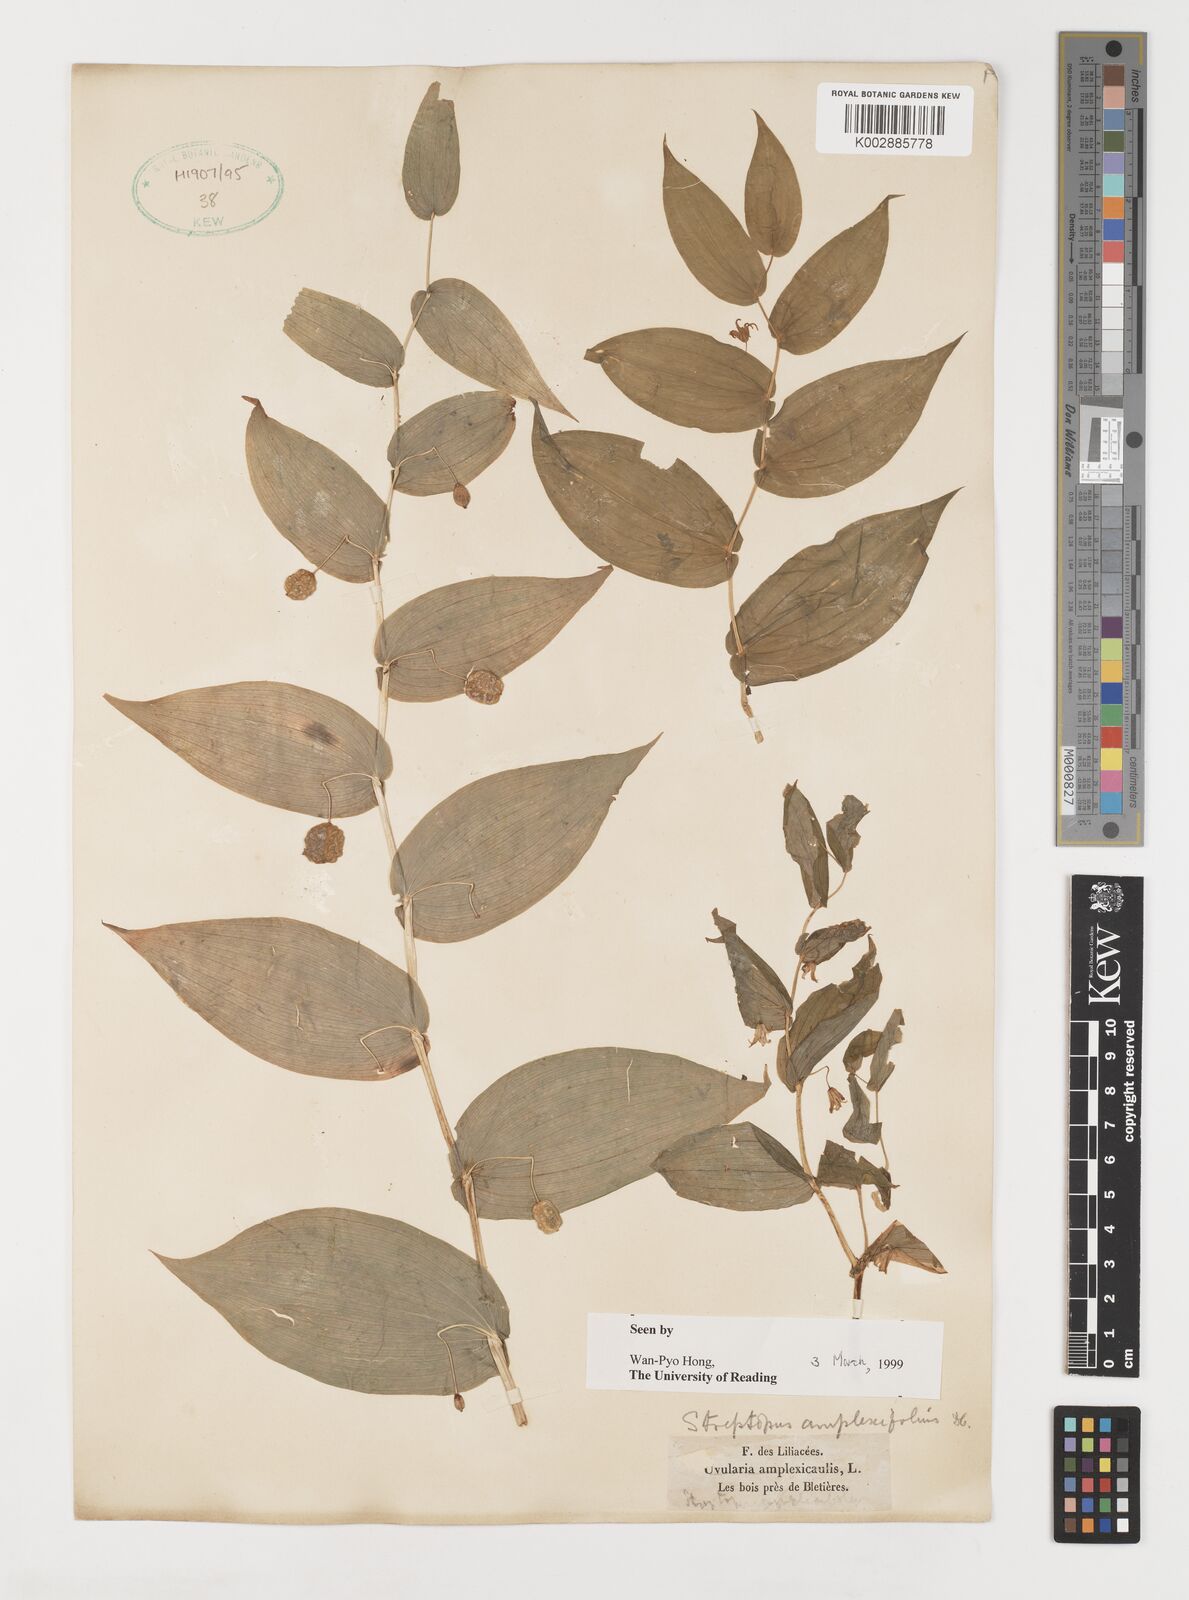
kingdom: Plantae
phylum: Tracheophyta
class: Liliopsida
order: Liliales
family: Liliaceae
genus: Streptopus
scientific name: Streptopus amplexifolius
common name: Clasp twisted stalk
